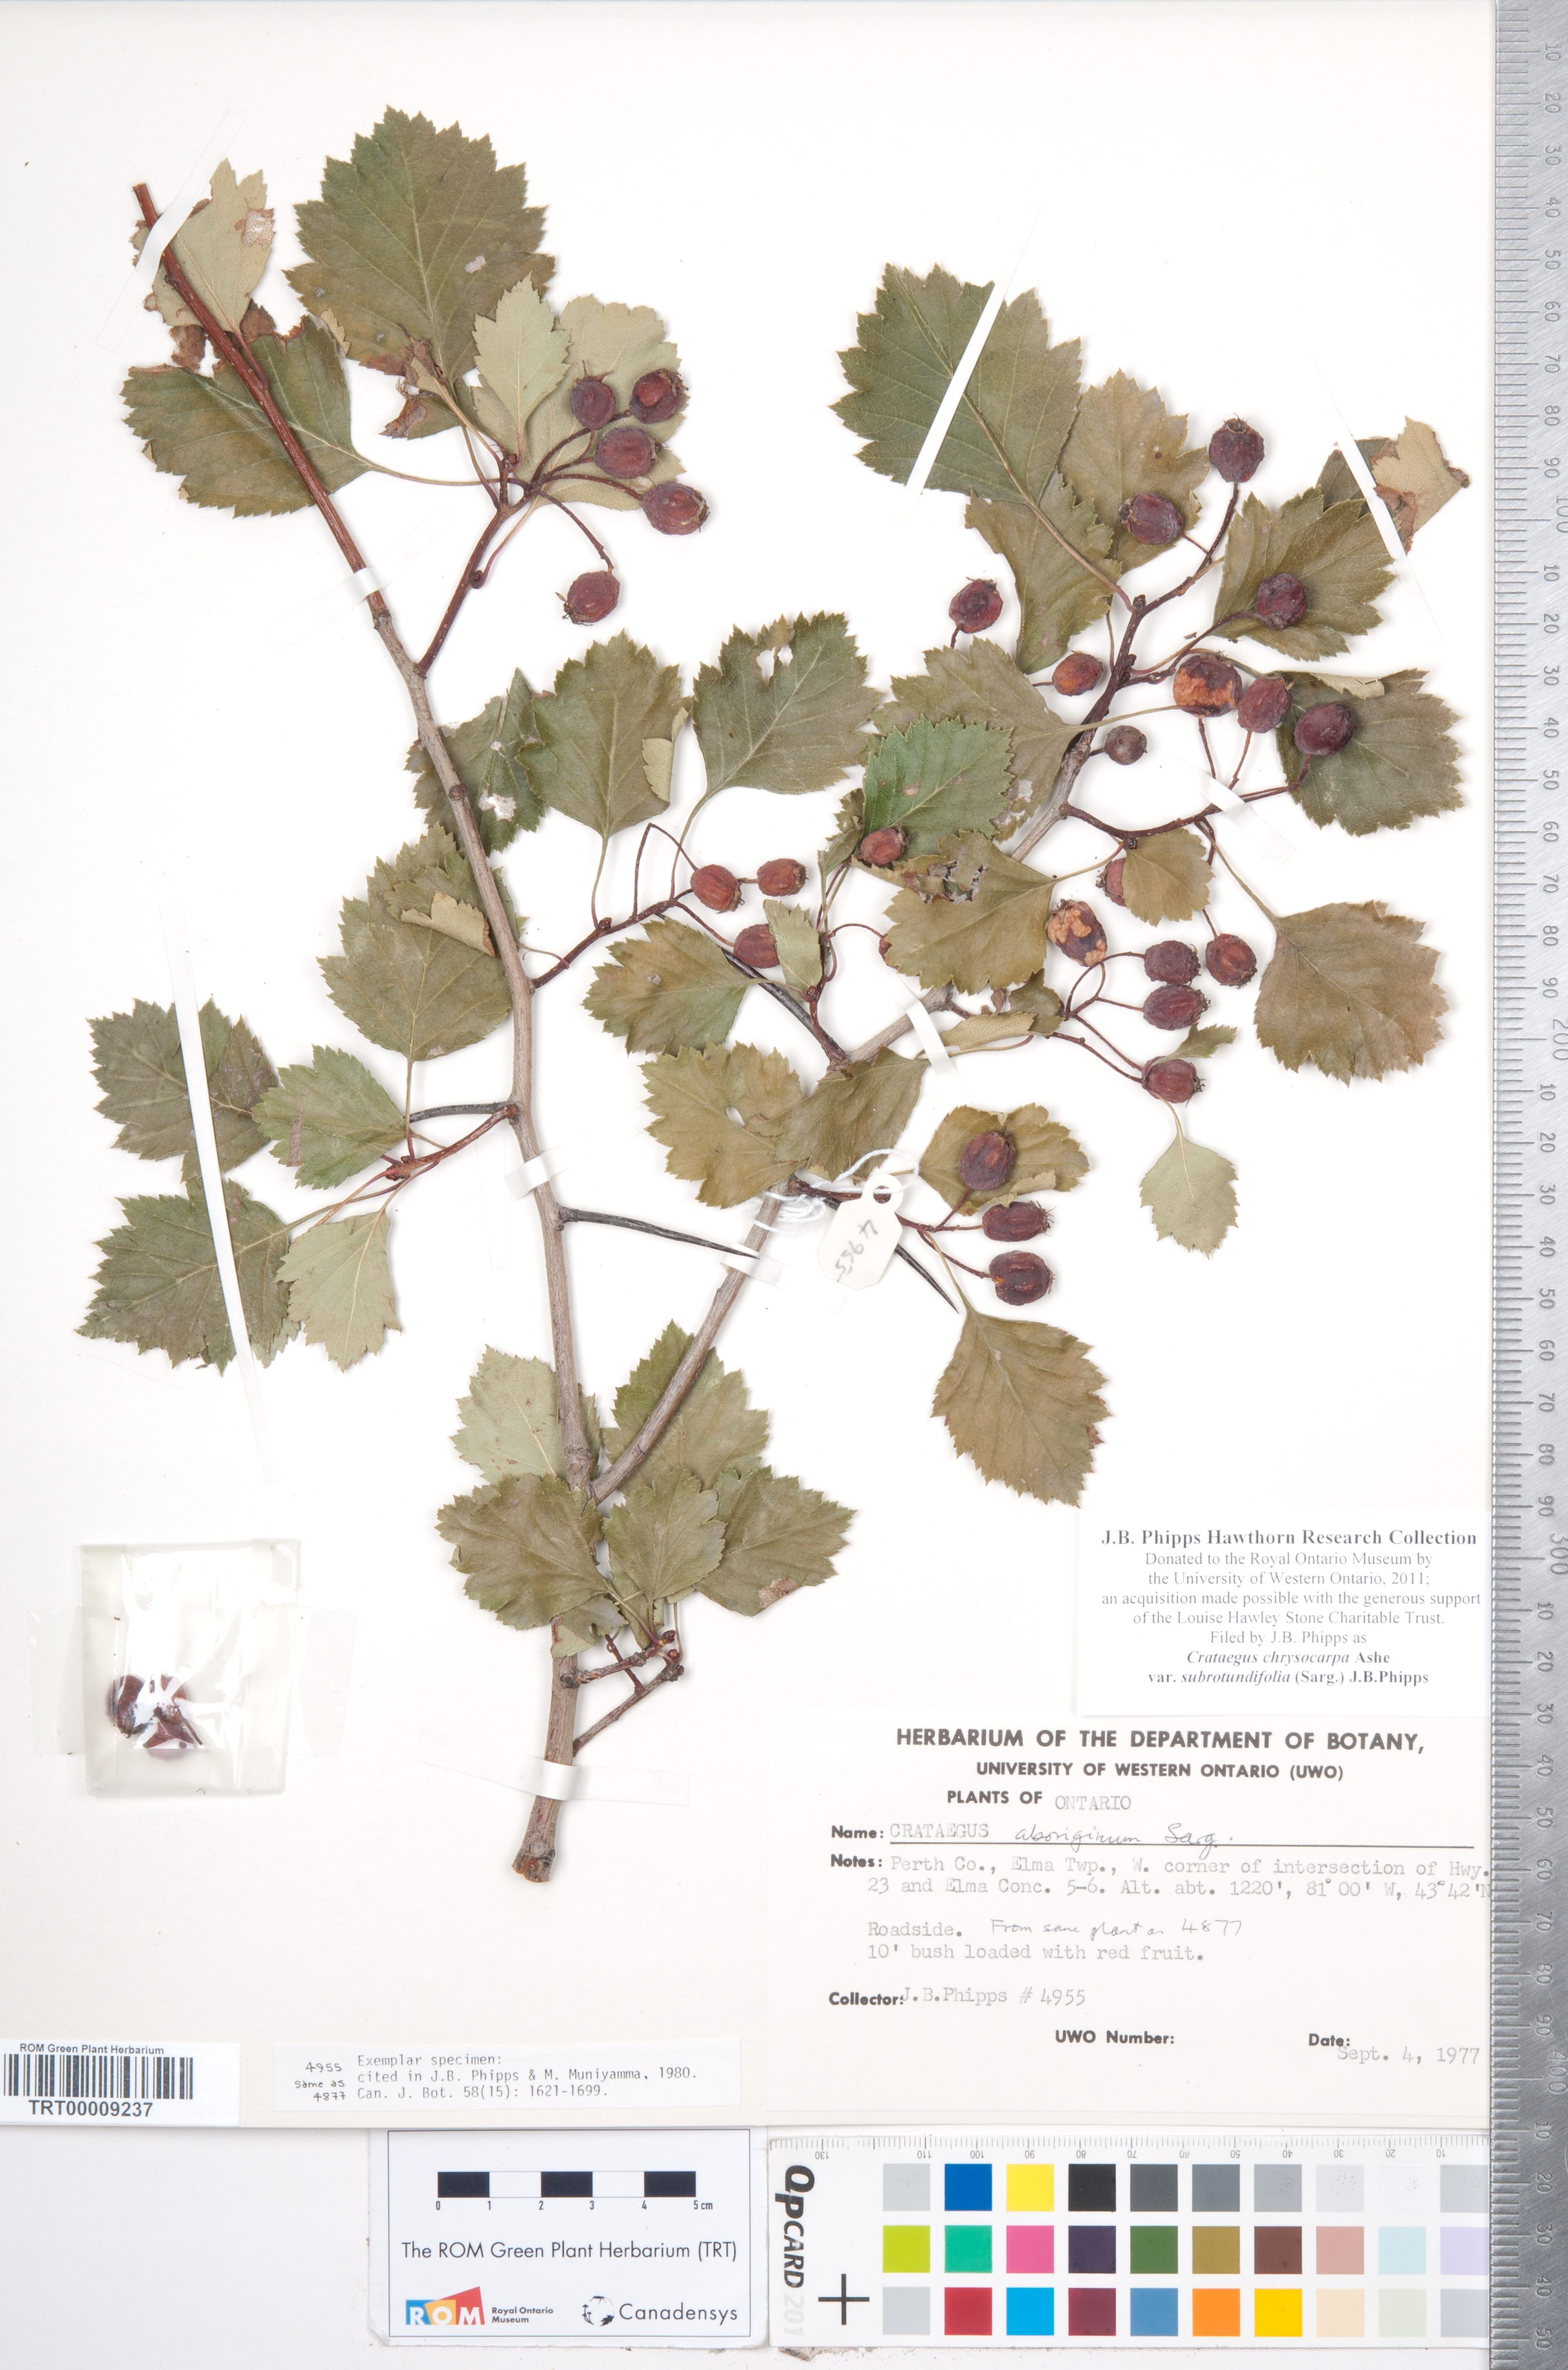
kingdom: Plantae
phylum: Tracheophyta
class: Magnoliopsida
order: Rosales
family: Rosaceae
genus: Crataegus
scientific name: Crataegus chrysocarpa
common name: Fire-berry hawthorn
